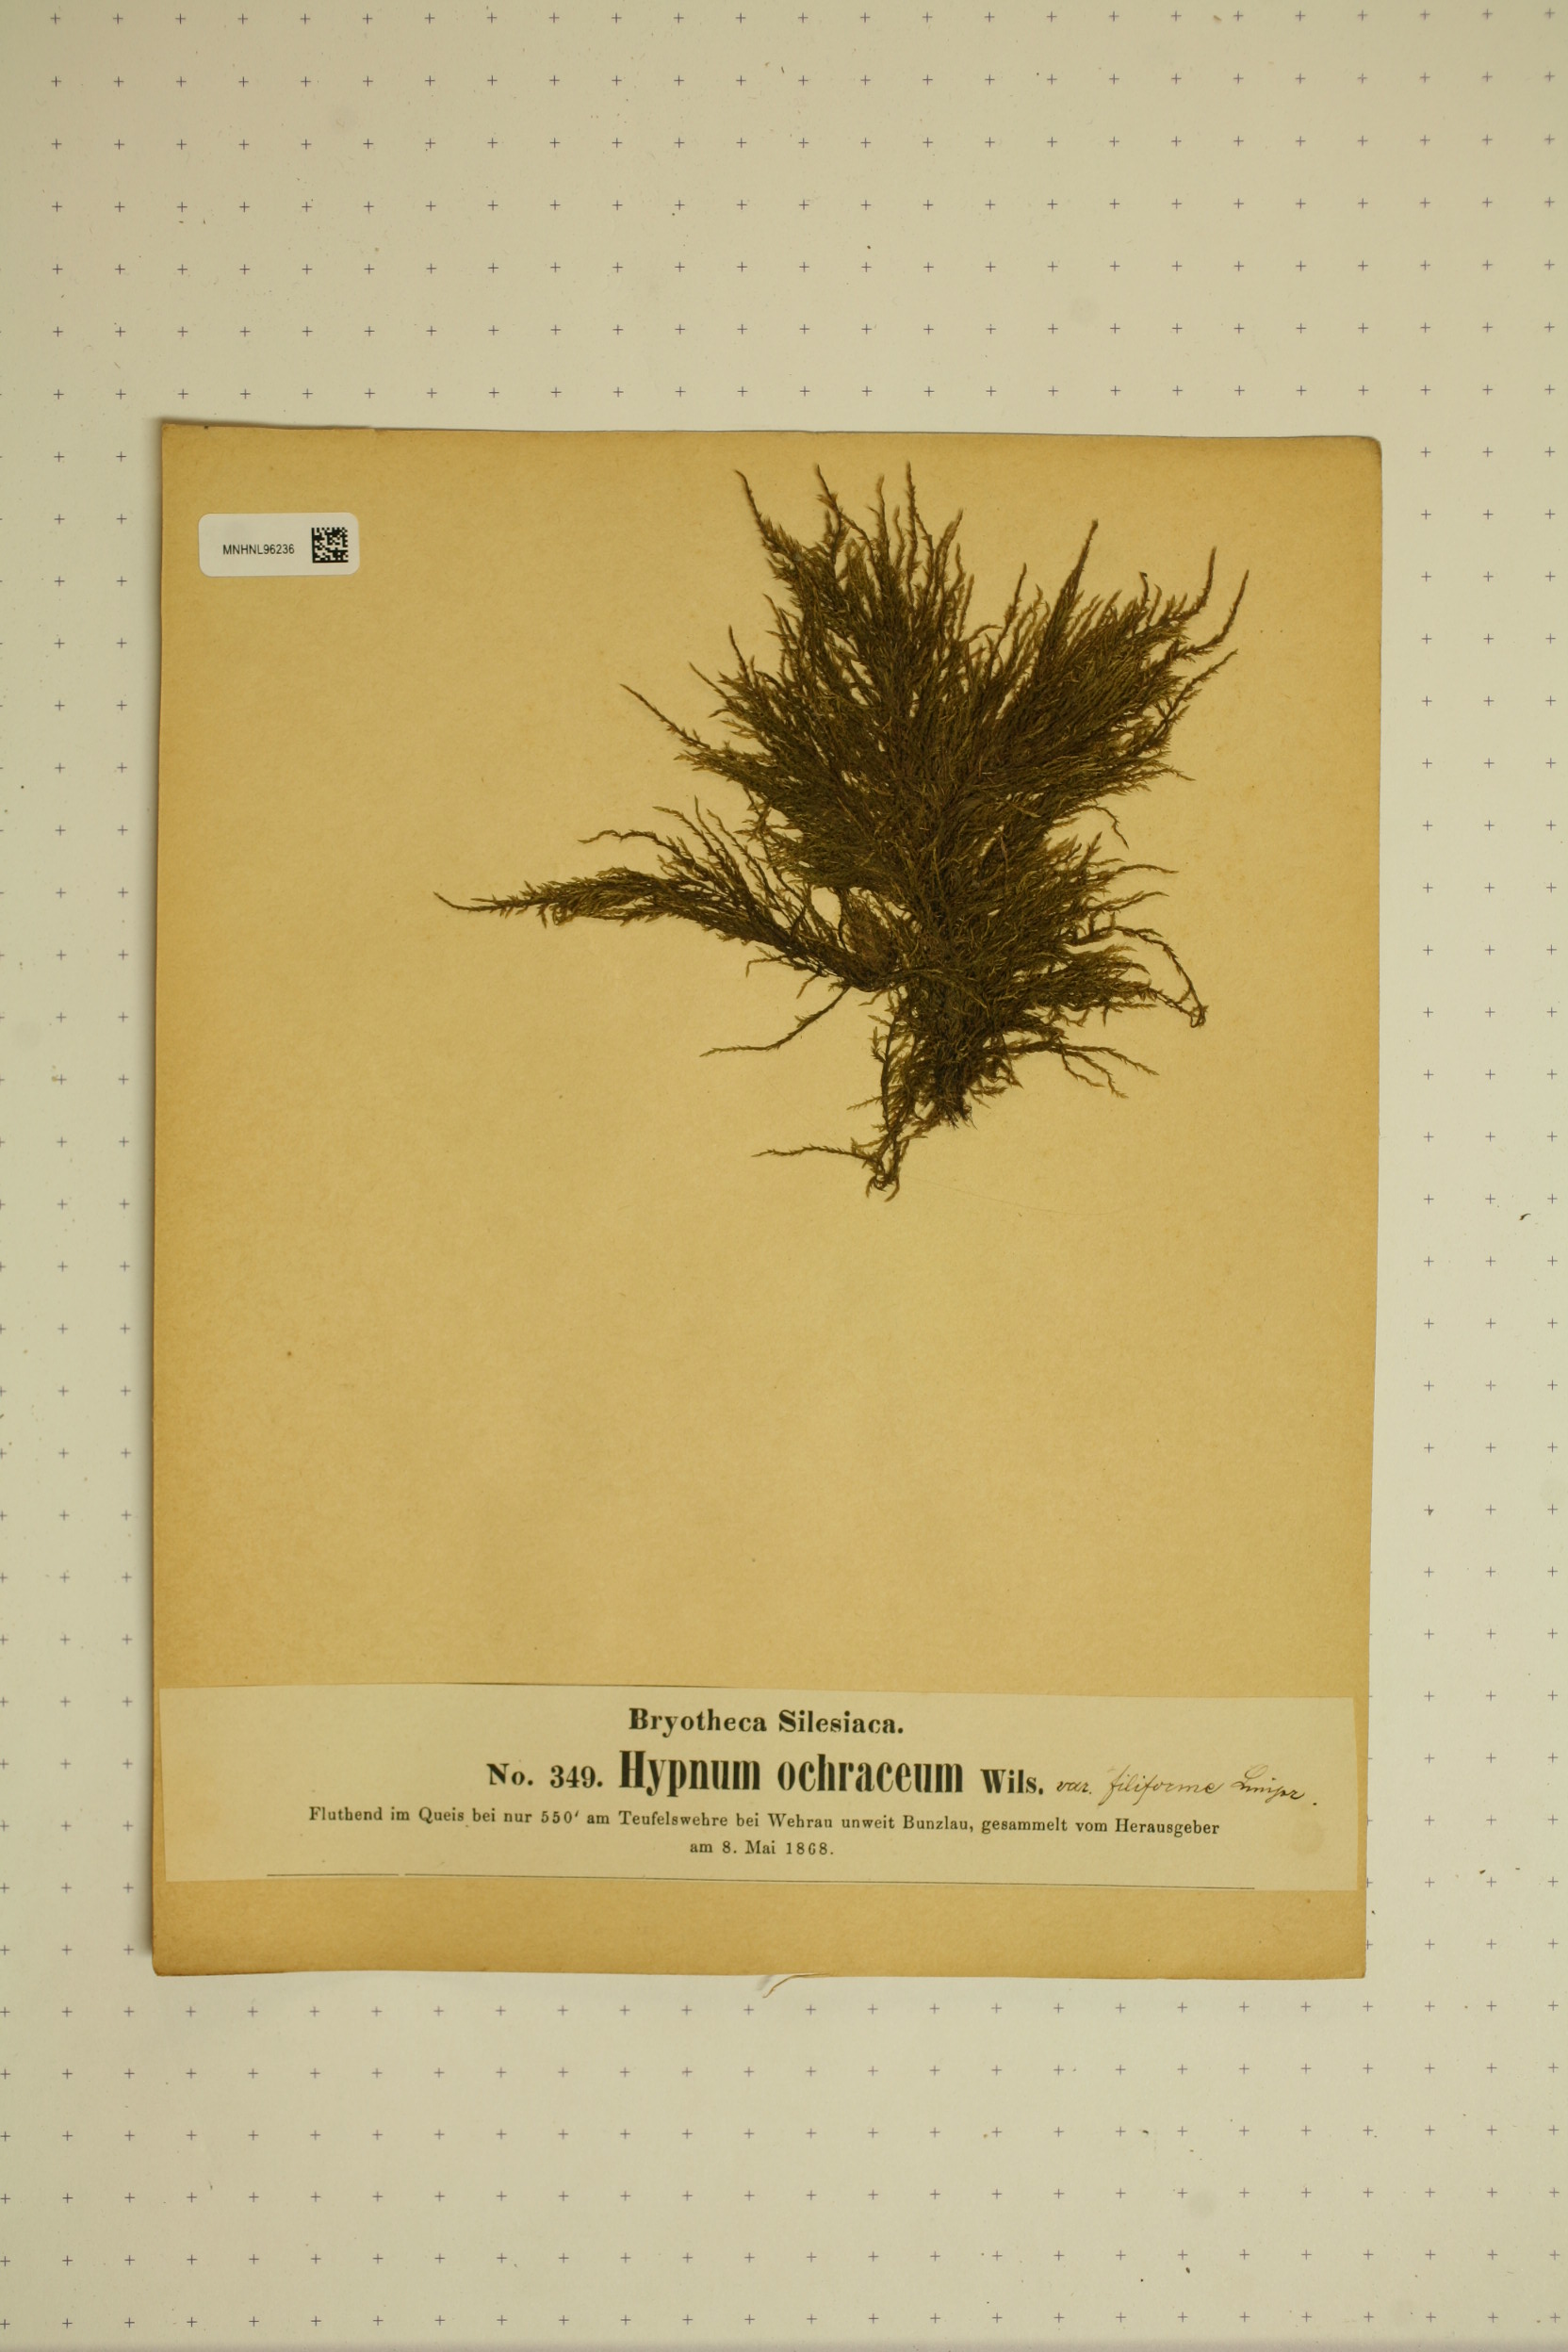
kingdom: Plantae
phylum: Bryophyta
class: Bryopsida
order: Hypnales
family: Scorpidiaceae
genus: Hygrohypnella
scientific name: Hygrohypnella ochracea
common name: Hygrohypnum moss
